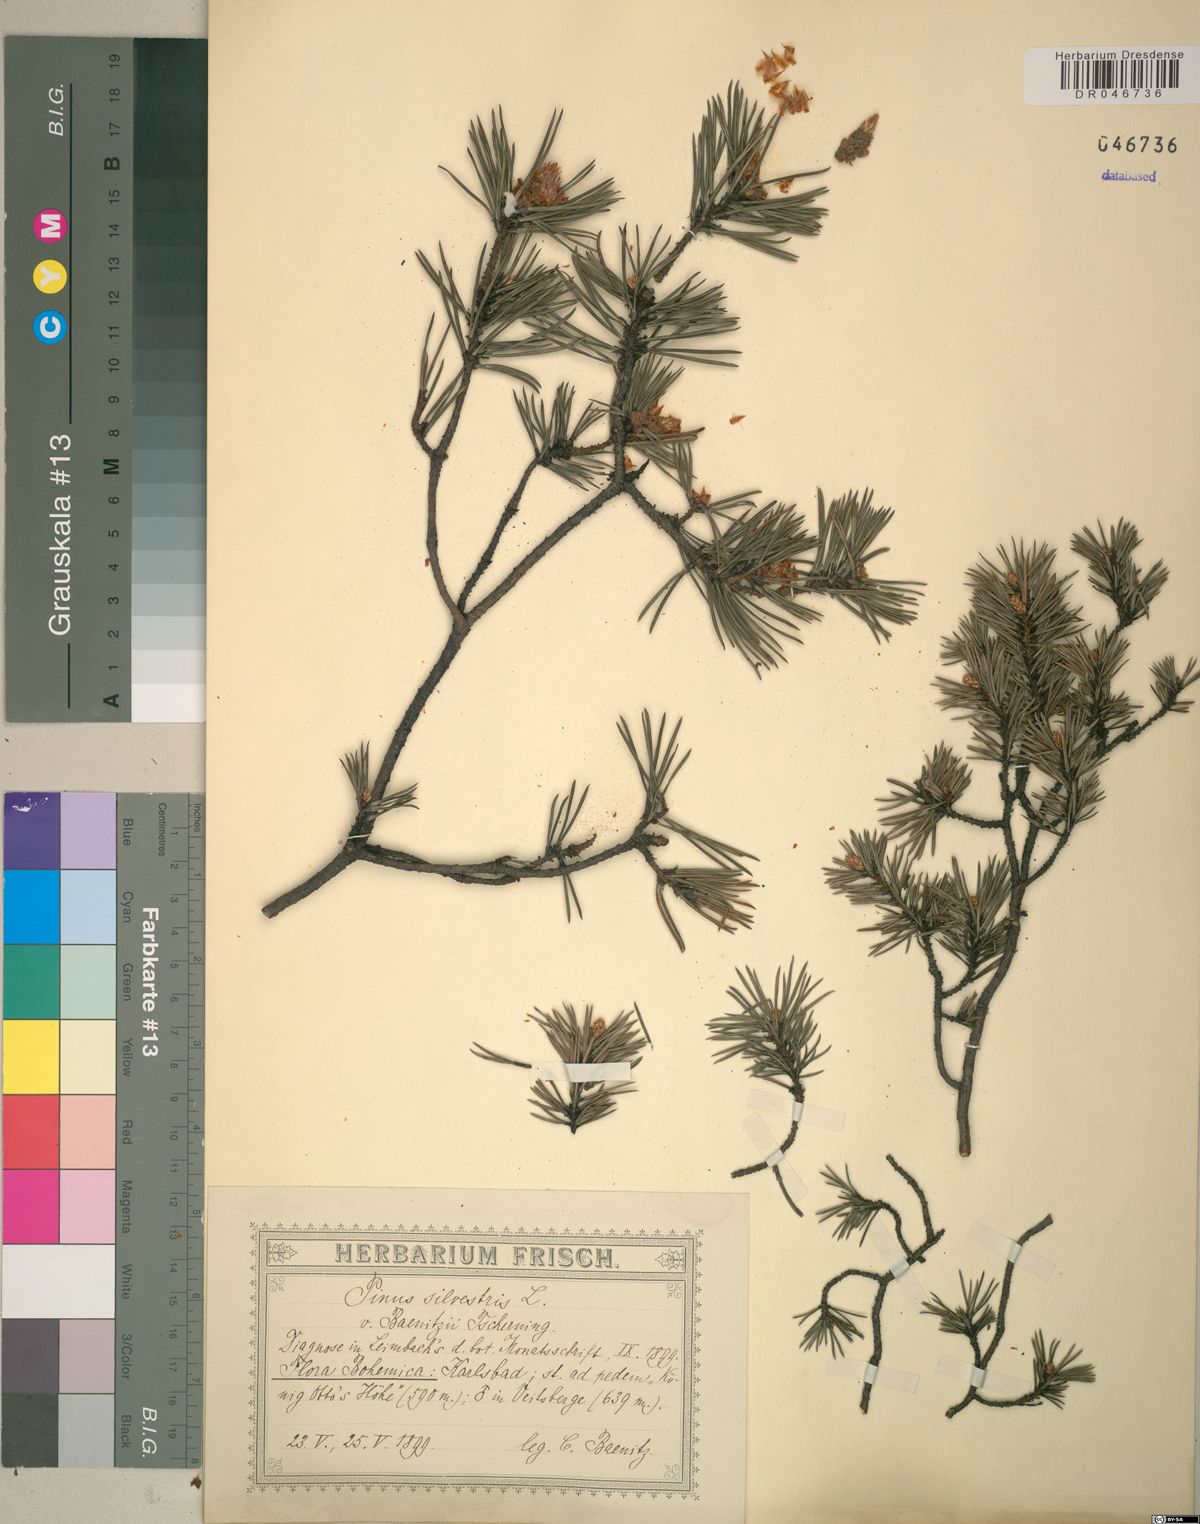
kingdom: Plantae
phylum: Tracheophyta
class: Pinopsida
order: Pinales
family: Pinaceae
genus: Pinus
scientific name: Pinus sylvestris
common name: Scots pine
